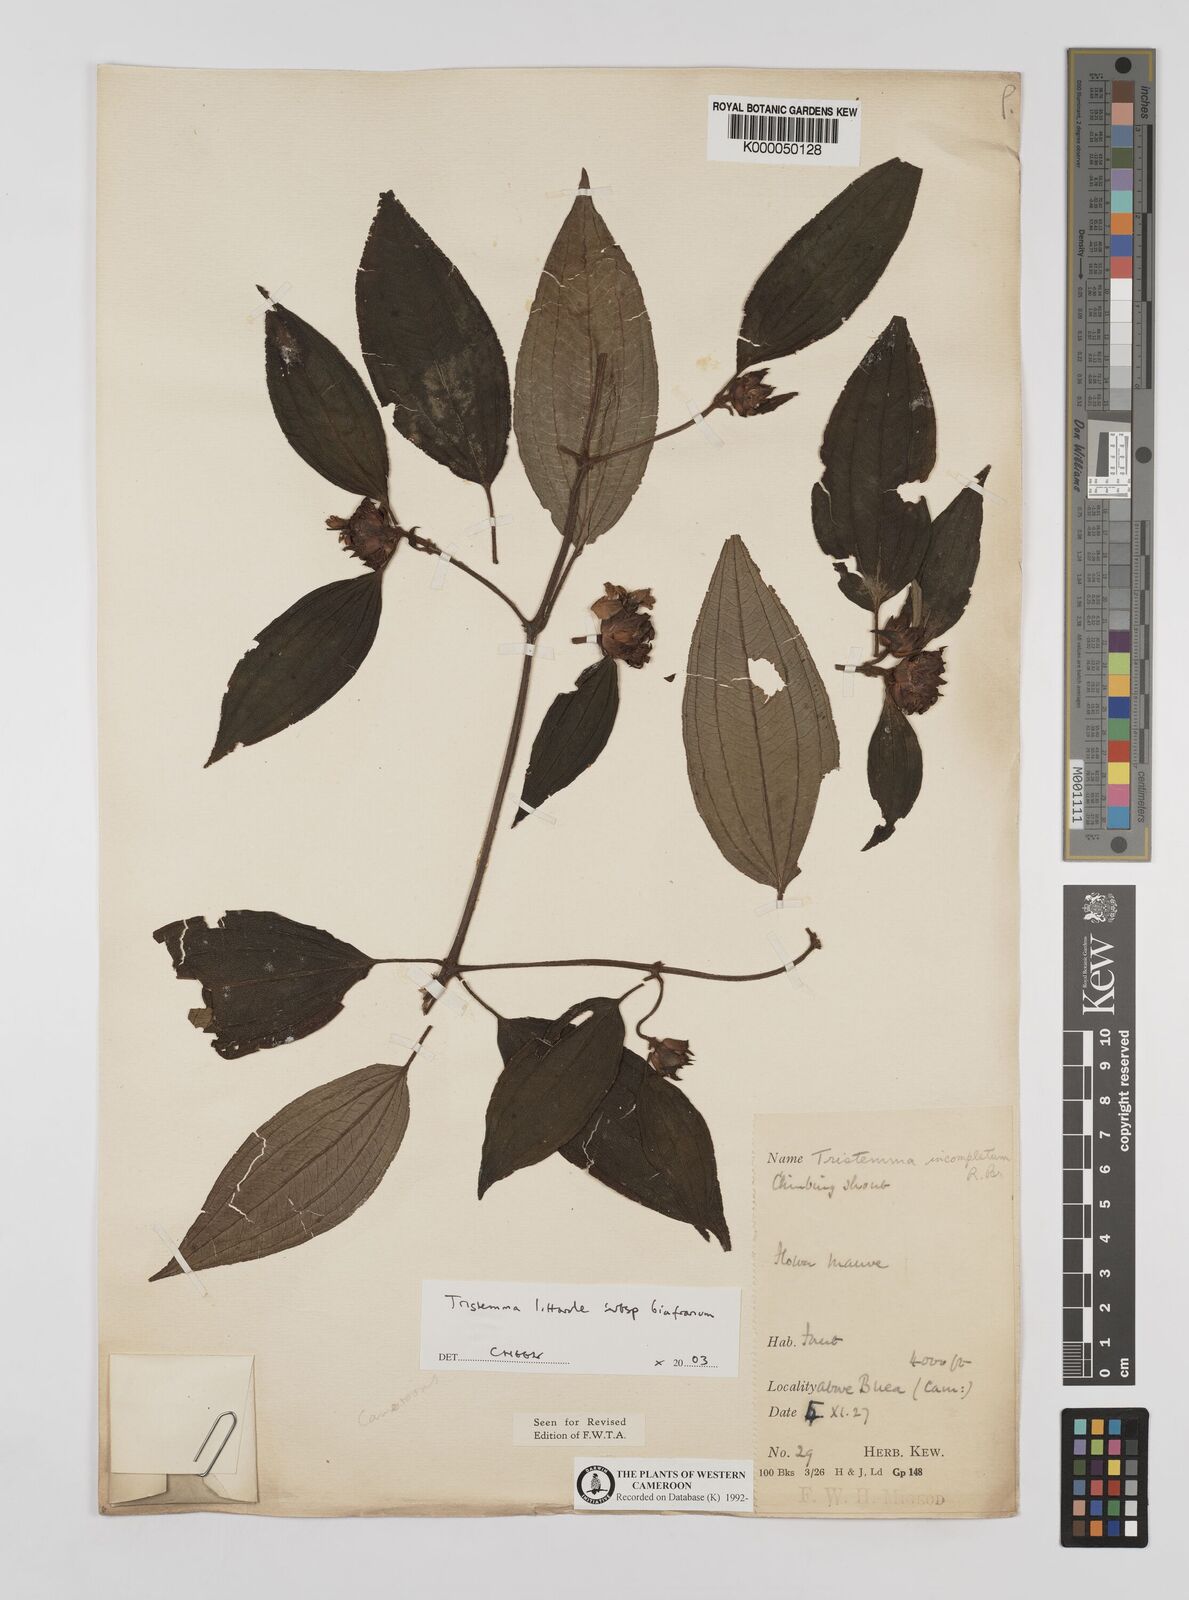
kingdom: Plantae
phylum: Tracheophyta
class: Magnoliopsida
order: Myrtales
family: Melastomataceae
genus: Tristemma
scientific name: Tristemma littorale
